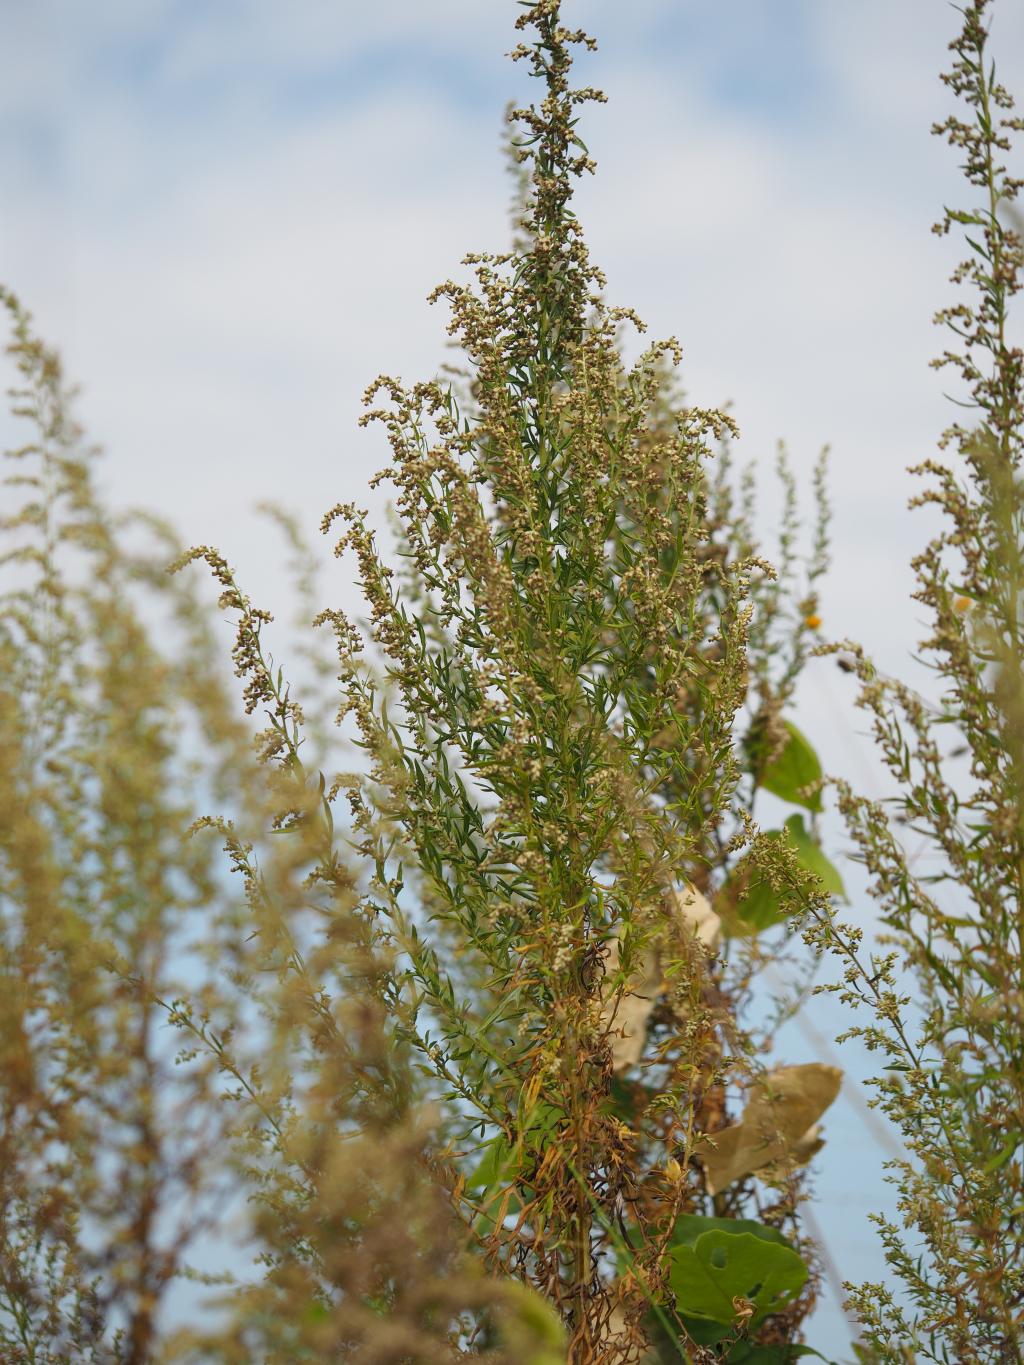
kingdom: Plantae
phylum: Tracheophyta
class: Magnoliopsida
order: Asterales
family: Asteraceae
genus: Artemisia
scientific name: Artemisia indica
